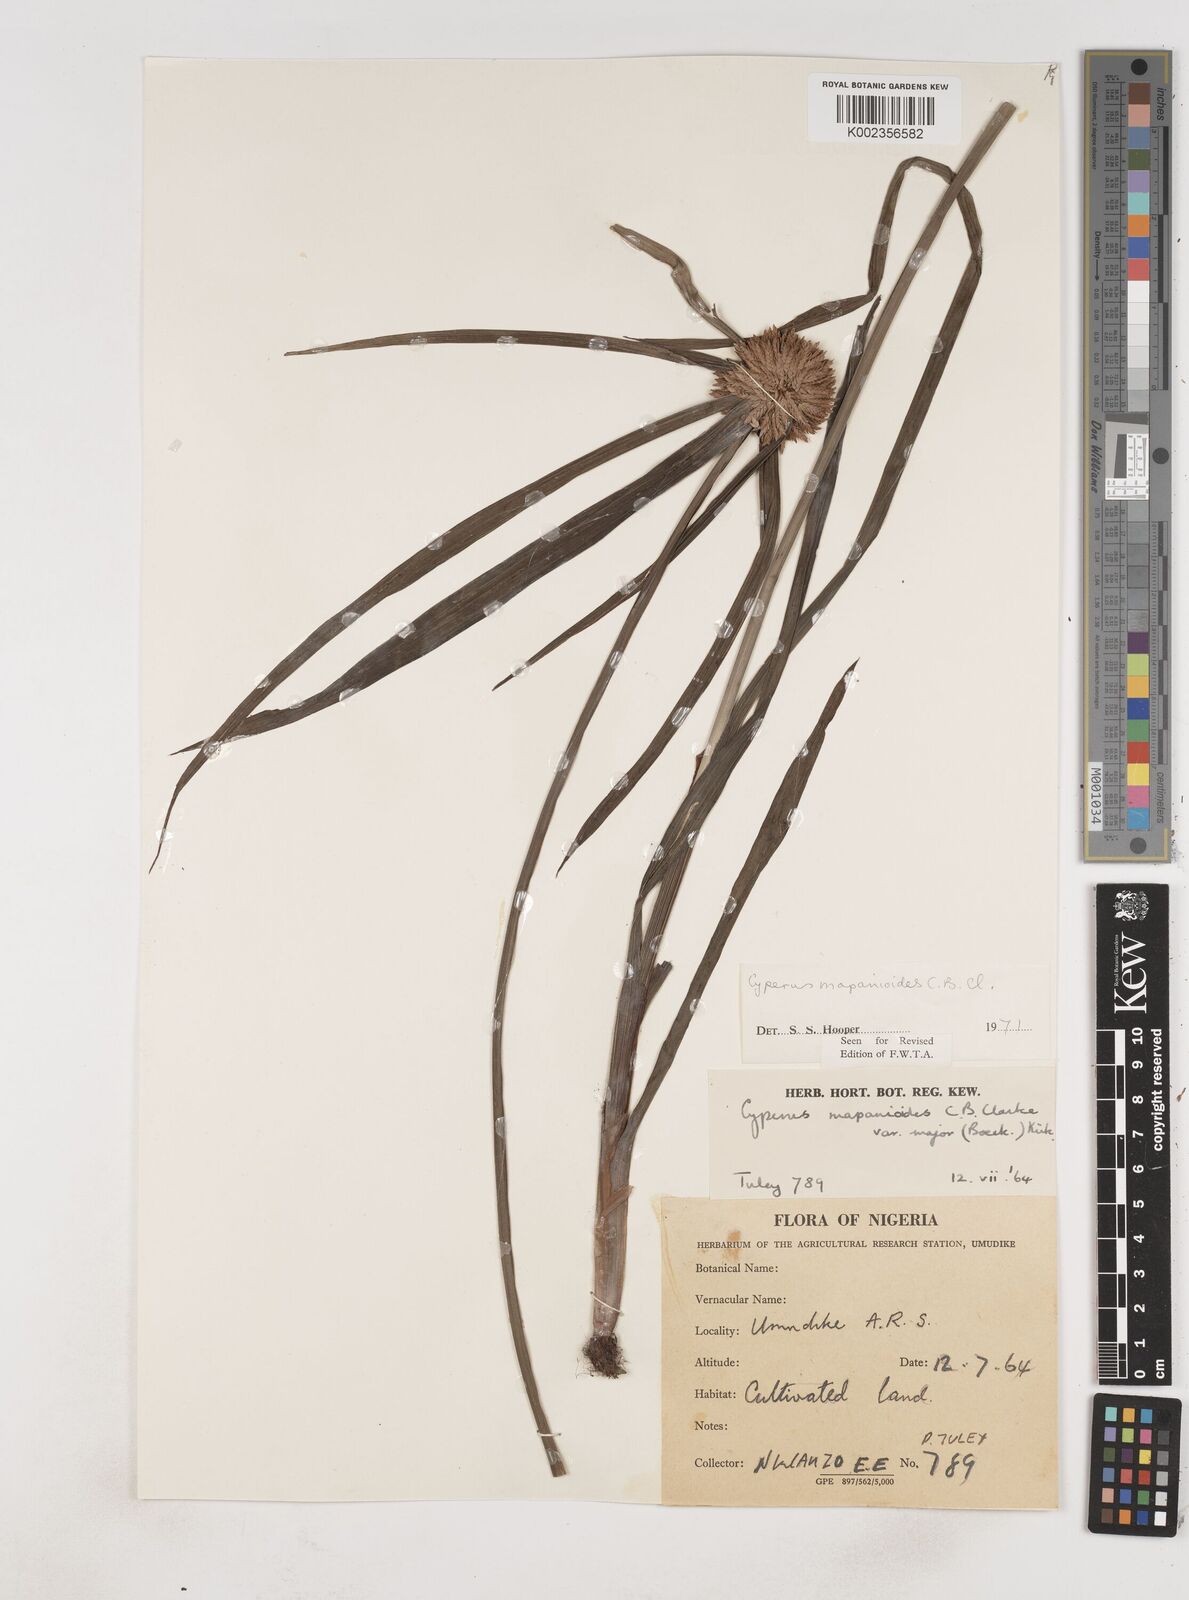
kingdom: Plantae
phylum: Tracheophyta
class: Liliopsida
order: Poales
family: Cyperaceae
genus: Cyperus
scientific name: Cyperus mapanioides
